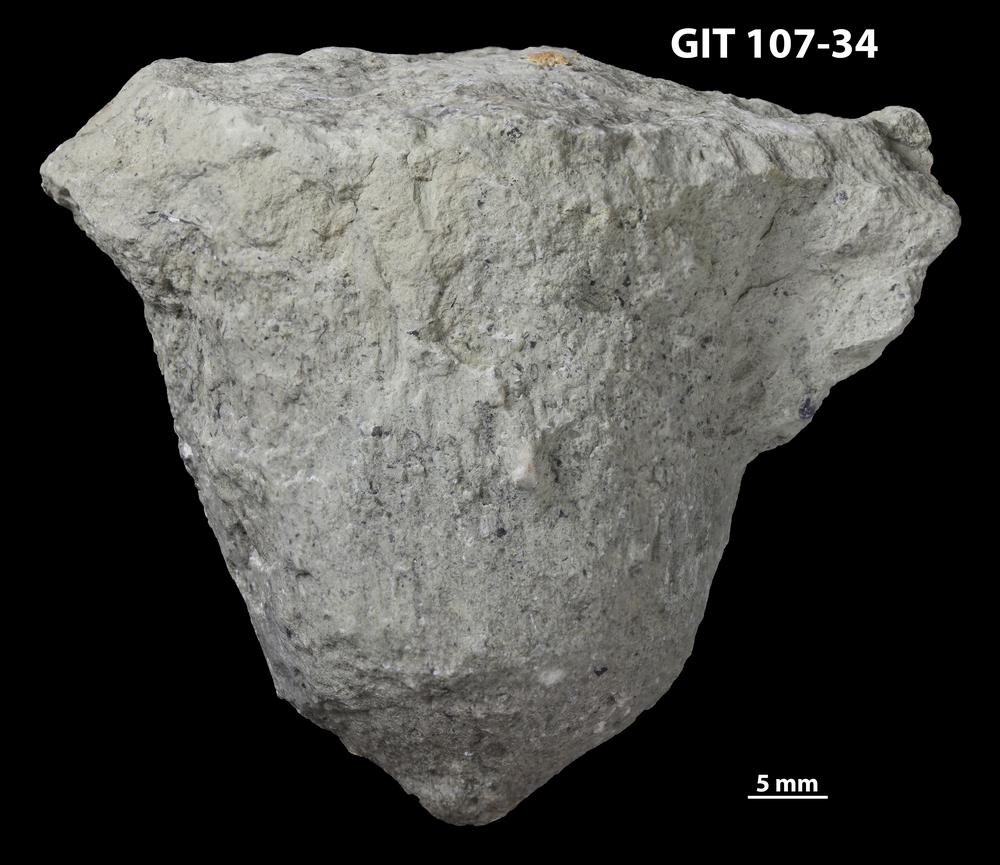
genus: Amphorichnus
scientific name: Amphorichnus
